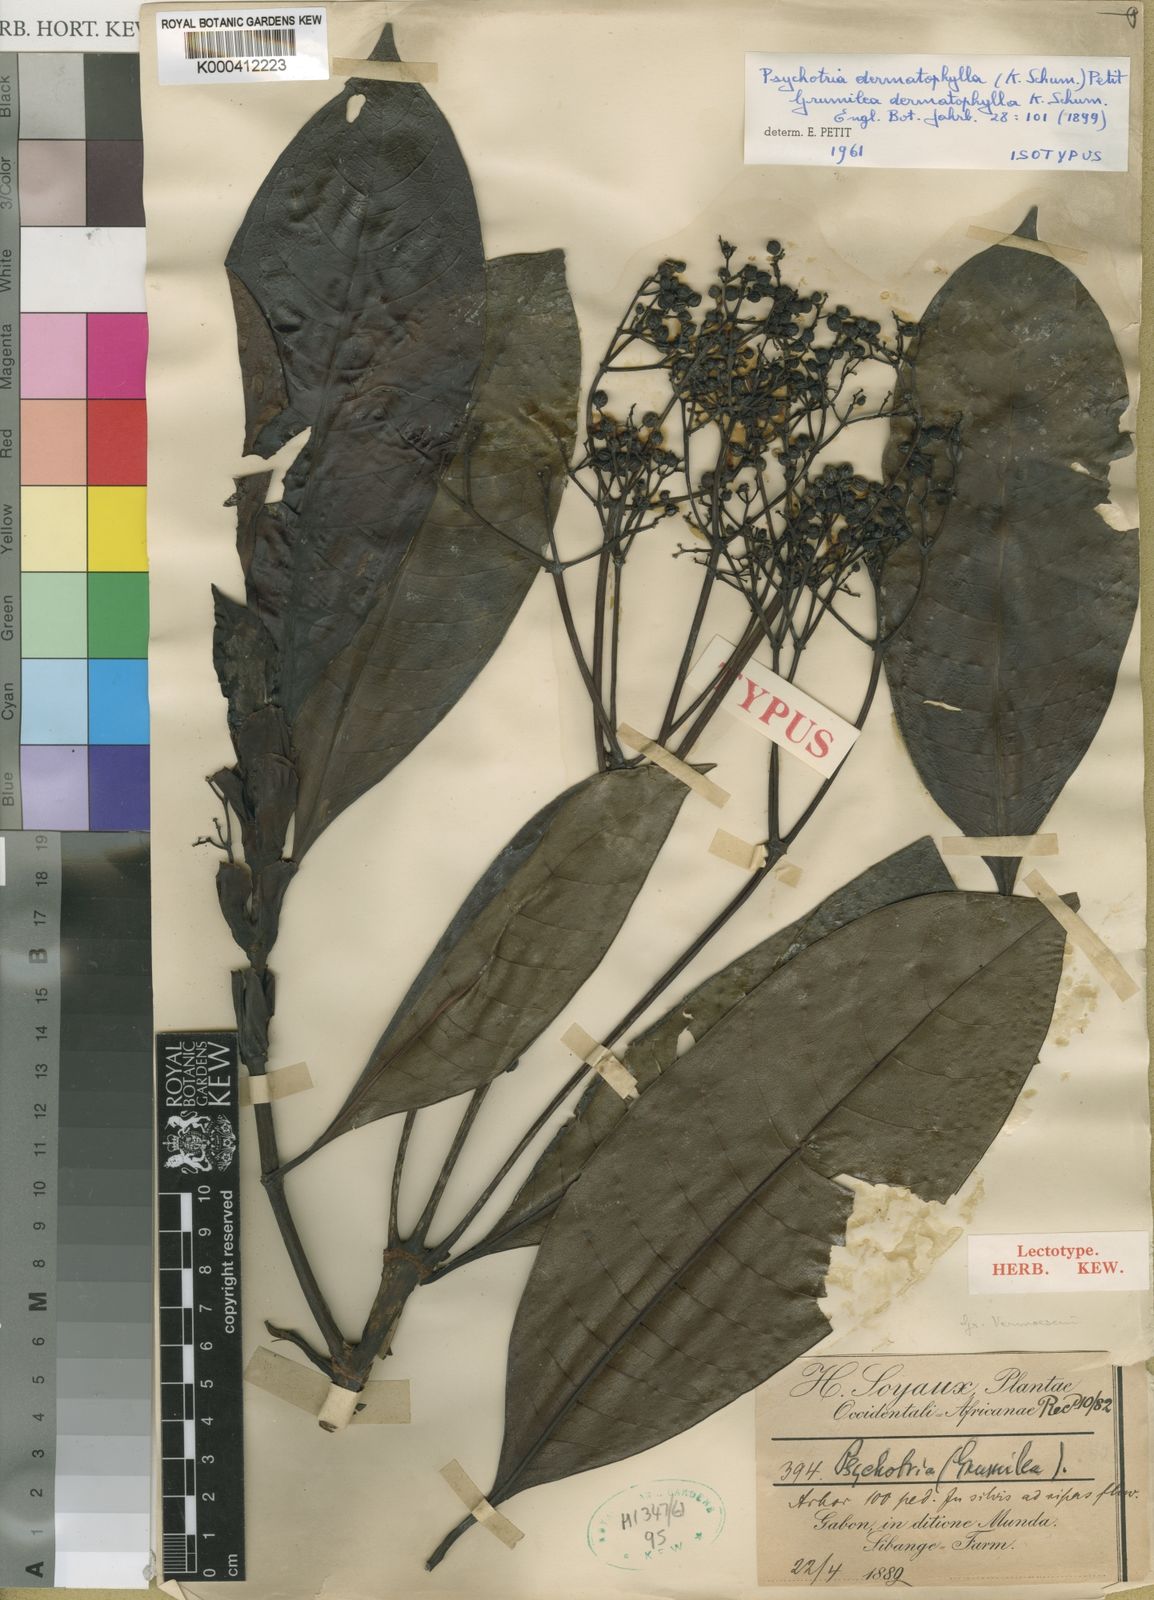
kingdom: Plantae
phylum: Tracheophyta
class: Magnoliopsida
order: Gentianales
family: Rubiaceae
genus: Psychotria
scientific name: Psychotria dermatophylla
